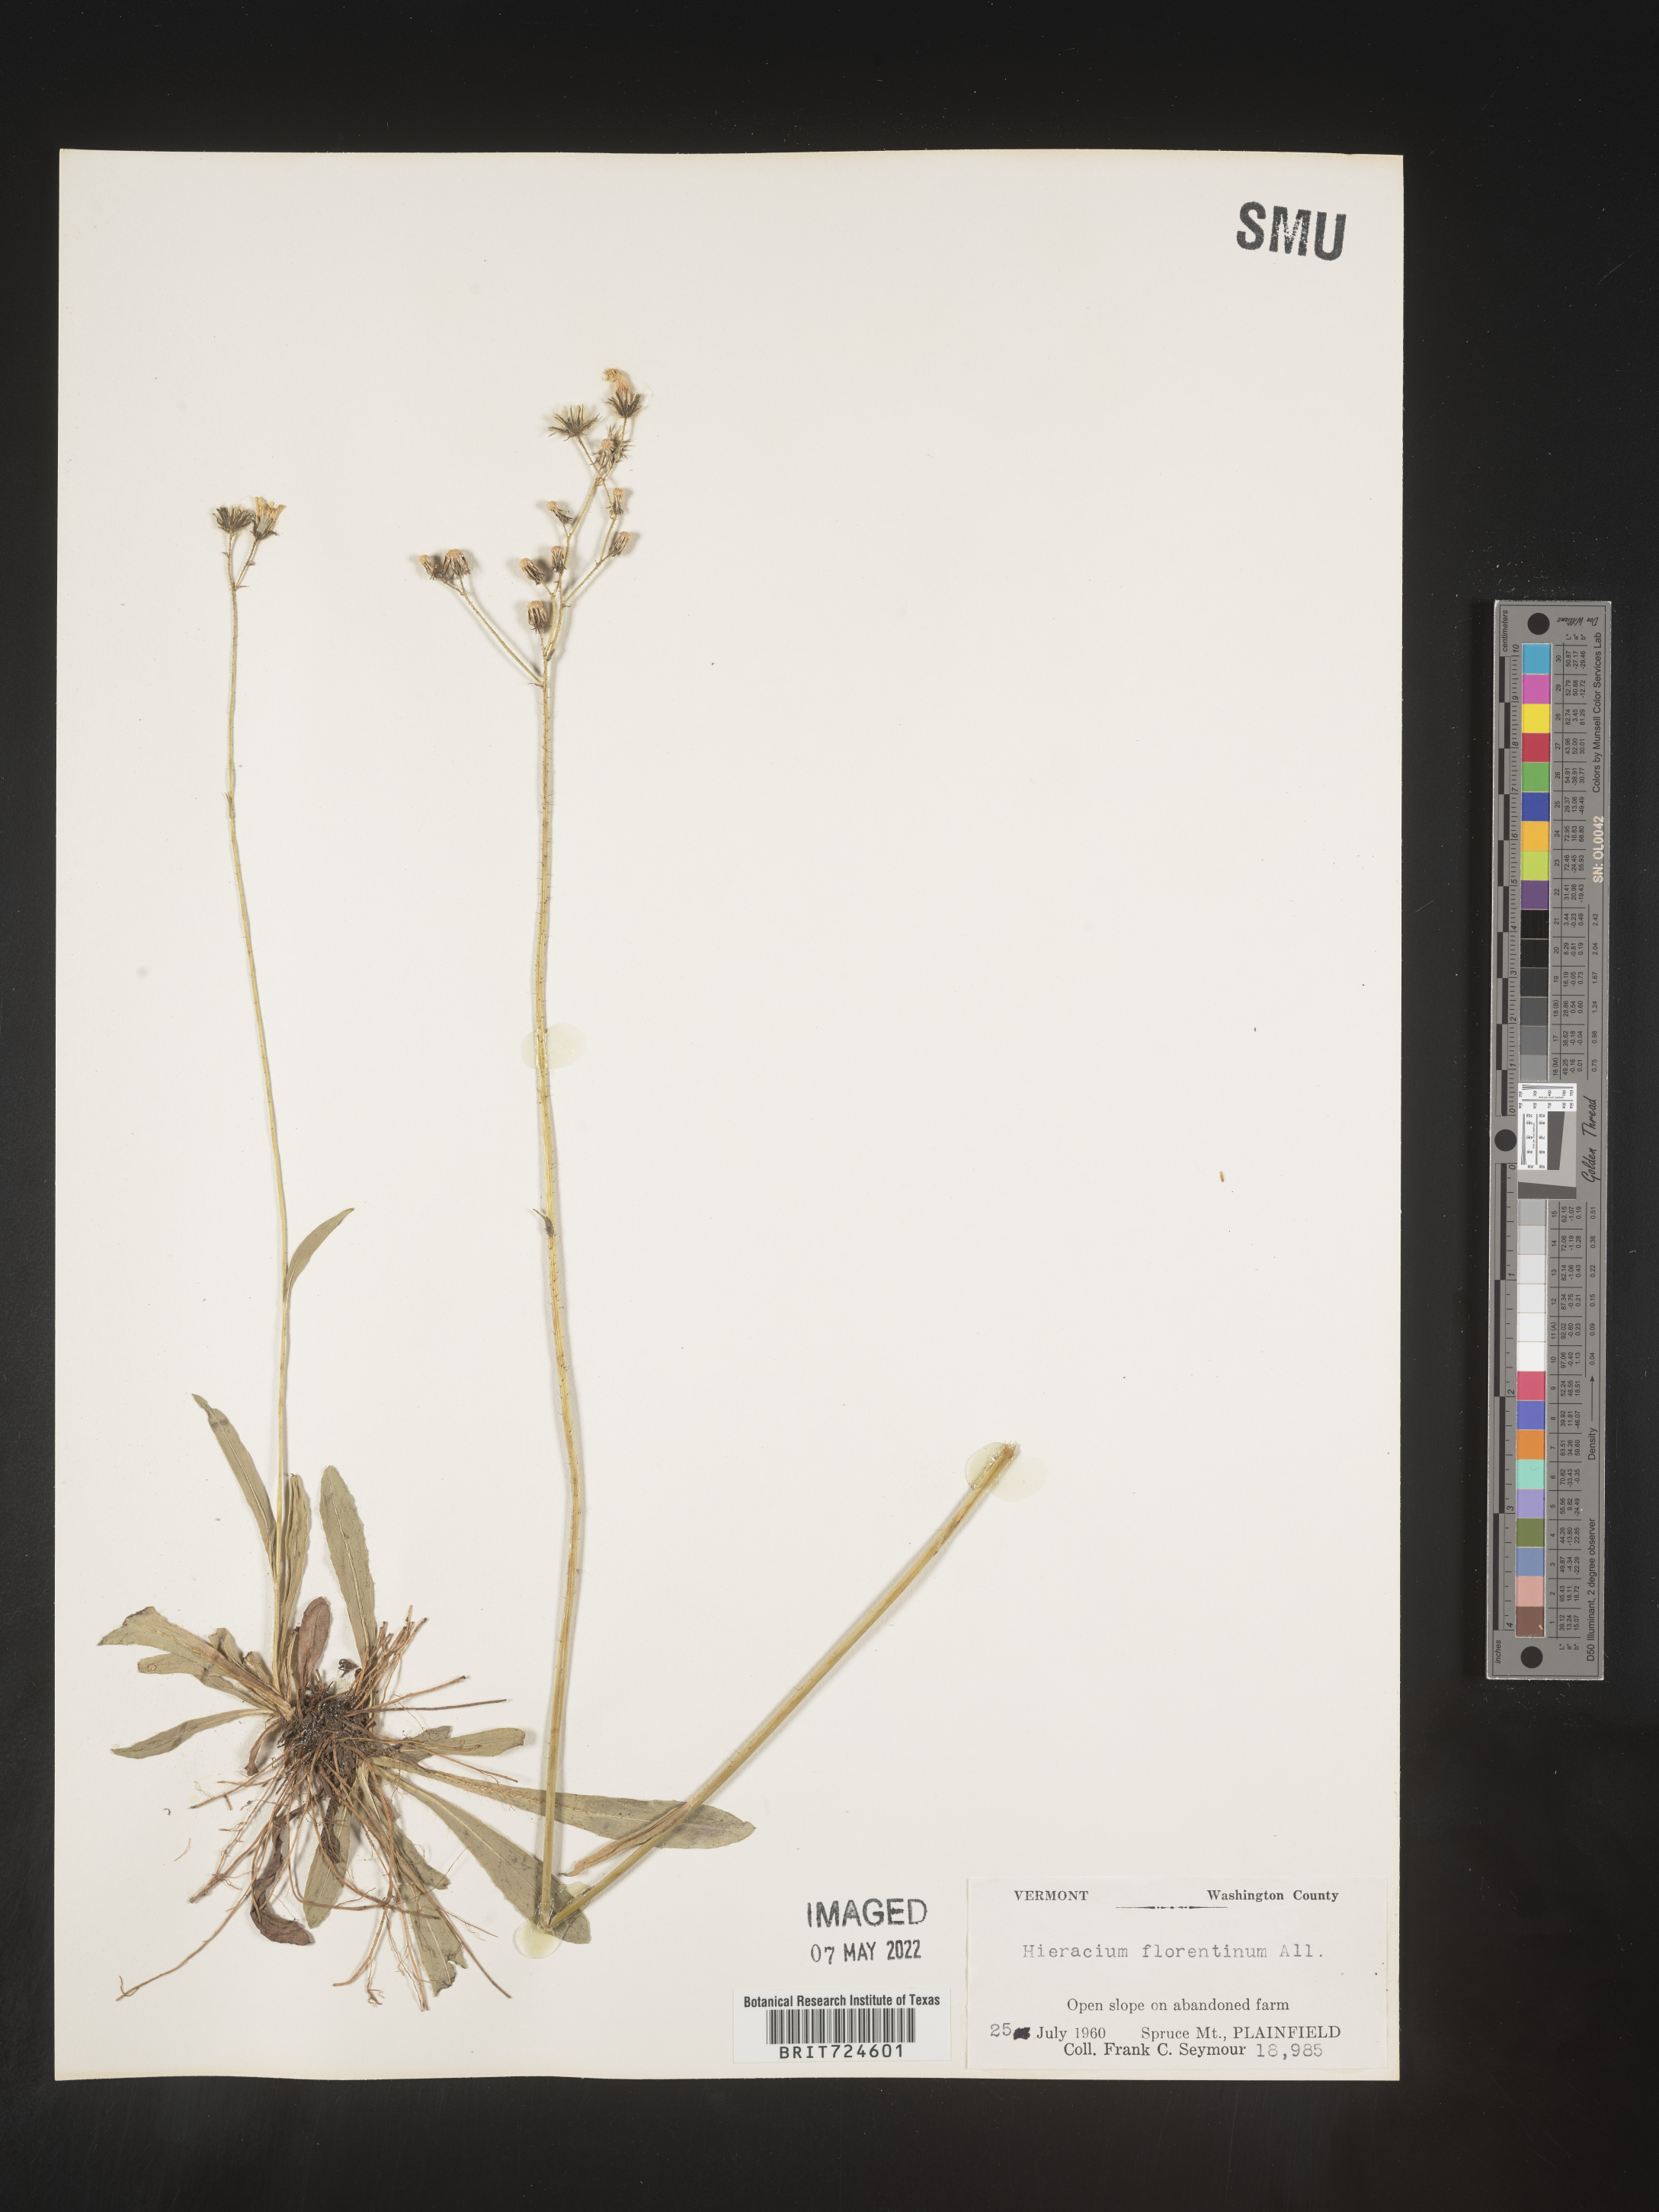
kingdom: Plantae
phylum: Tracheophyta
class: Magnoliopsida
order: Asterales
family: Asteraceae
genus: Pilosella
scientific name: Pilosella piloselloides
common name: Glaucous king-devil
